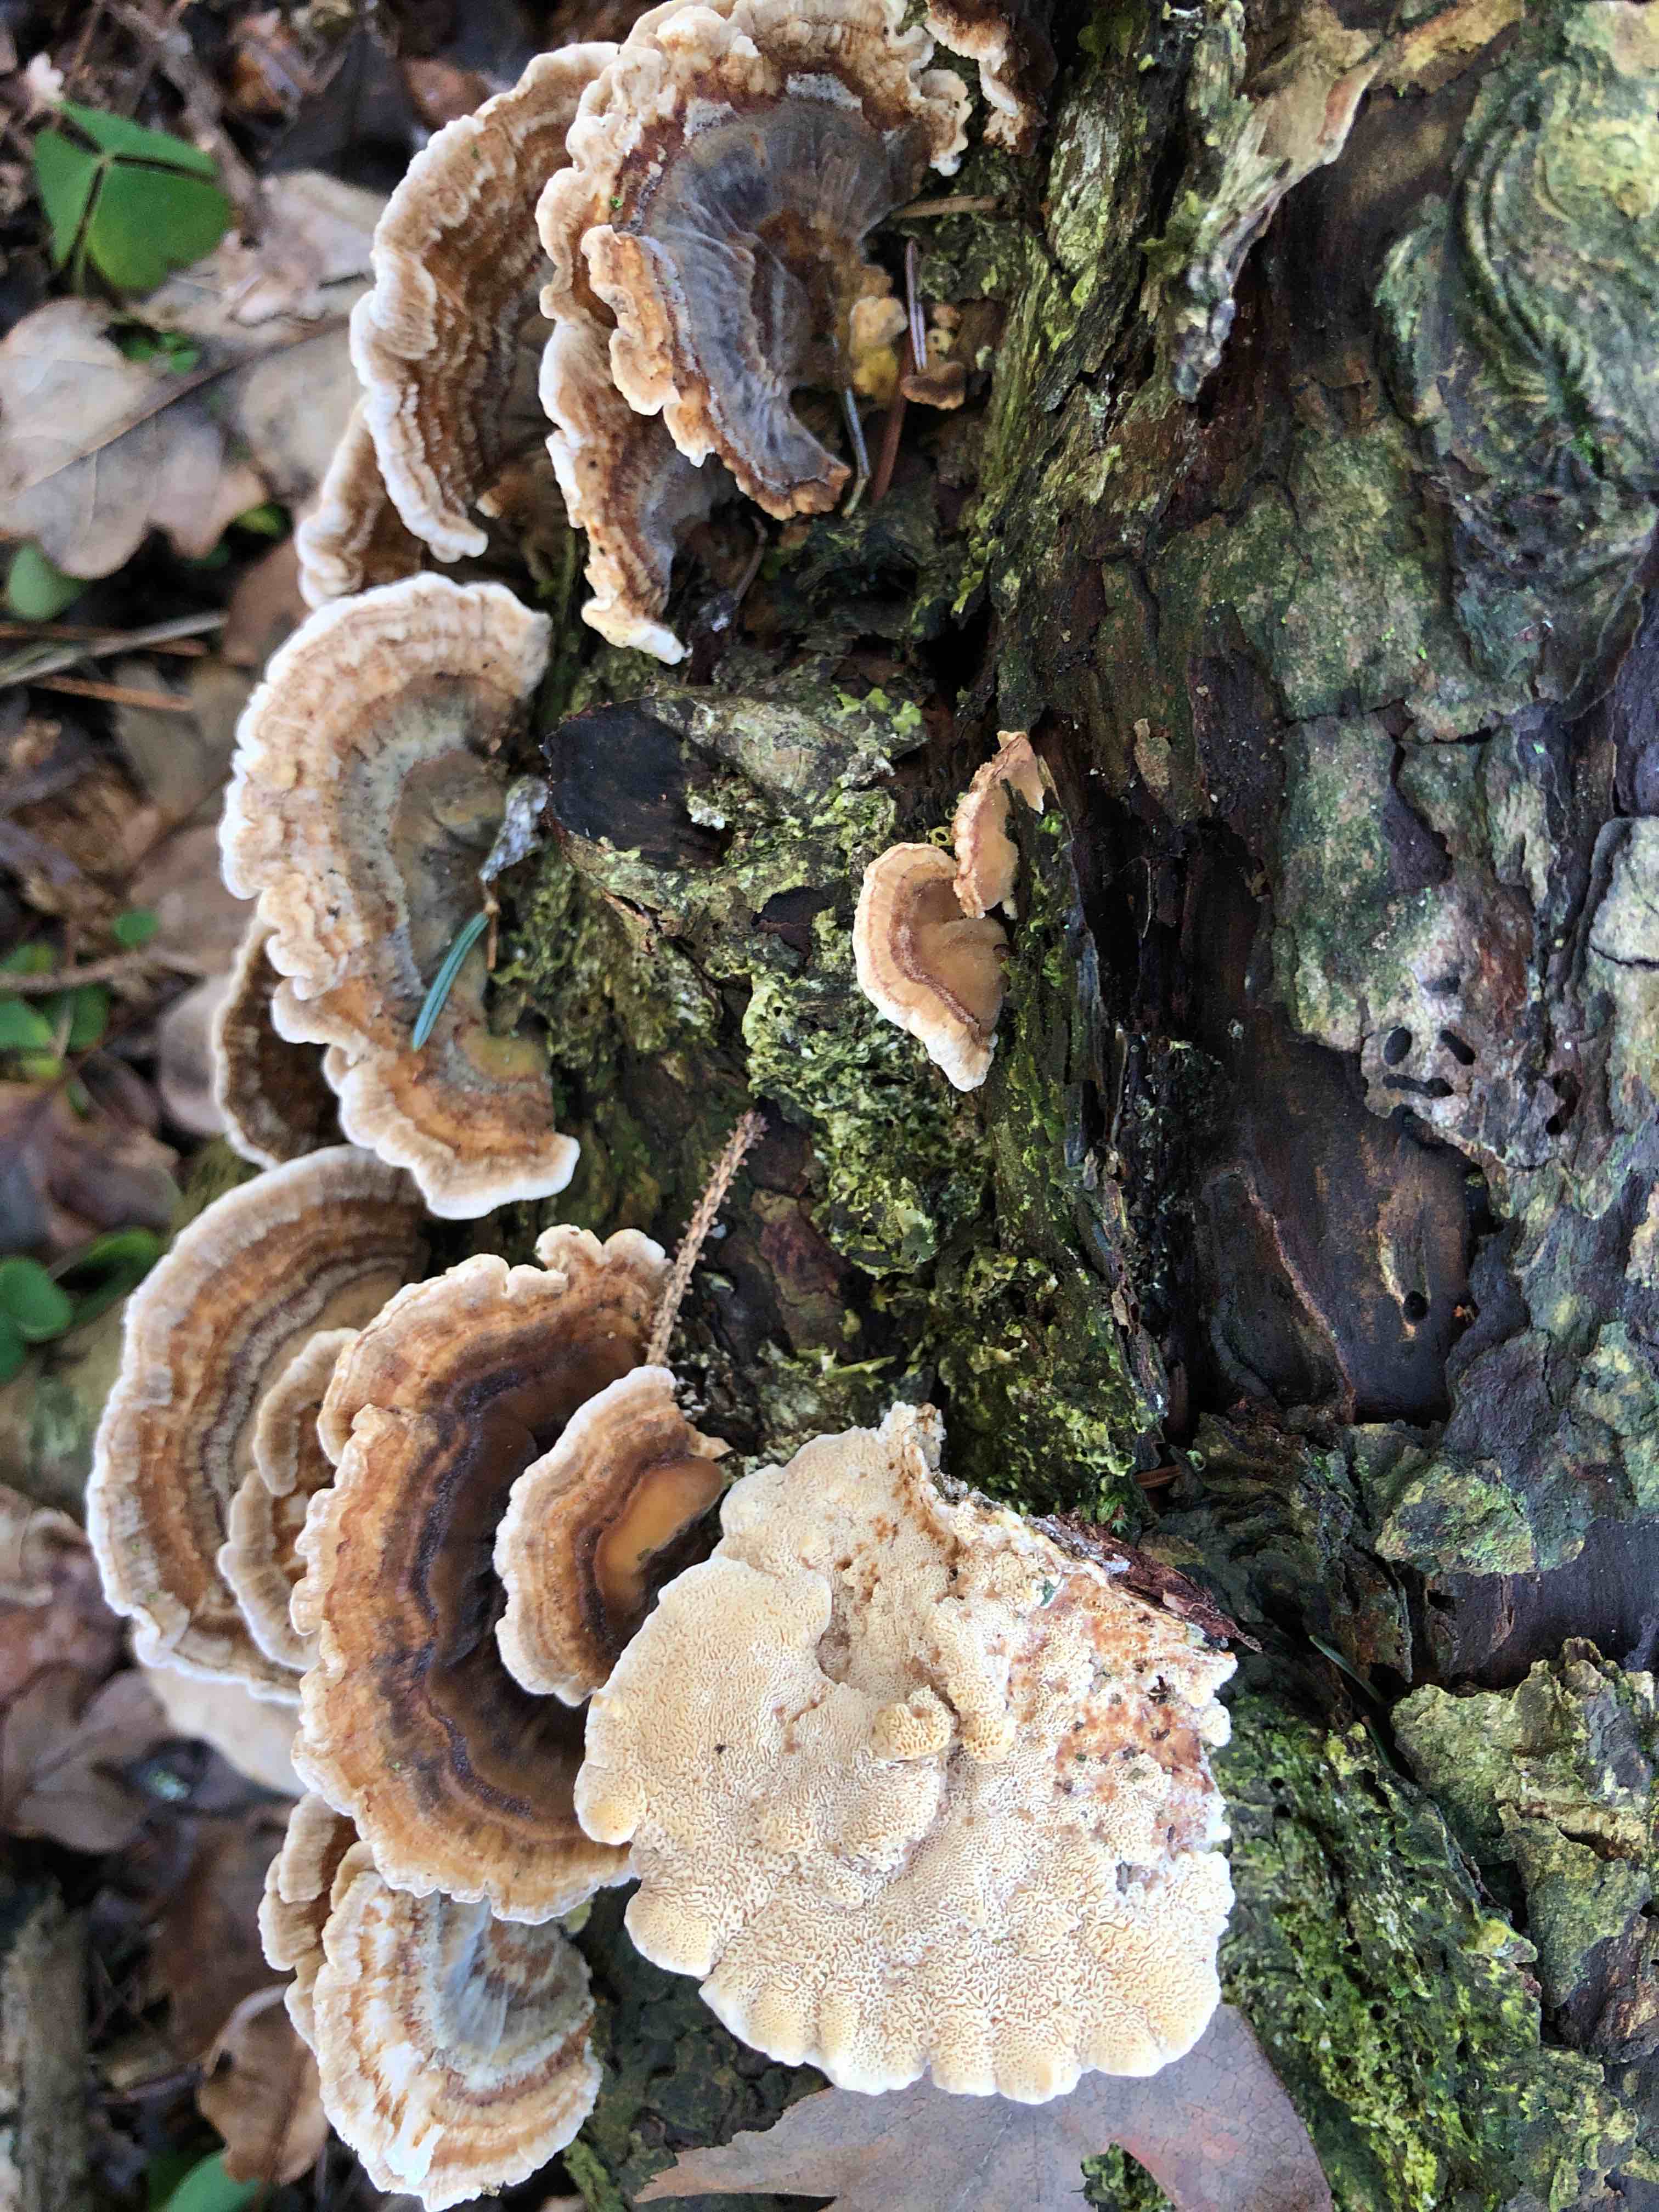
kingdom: Fungi
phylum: Basidiomycota
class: Agaricomycetes
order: Polyporales
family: Polyporaceae
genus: Trametes
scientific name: Trametes versicolor
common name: broget læderporesvamp
